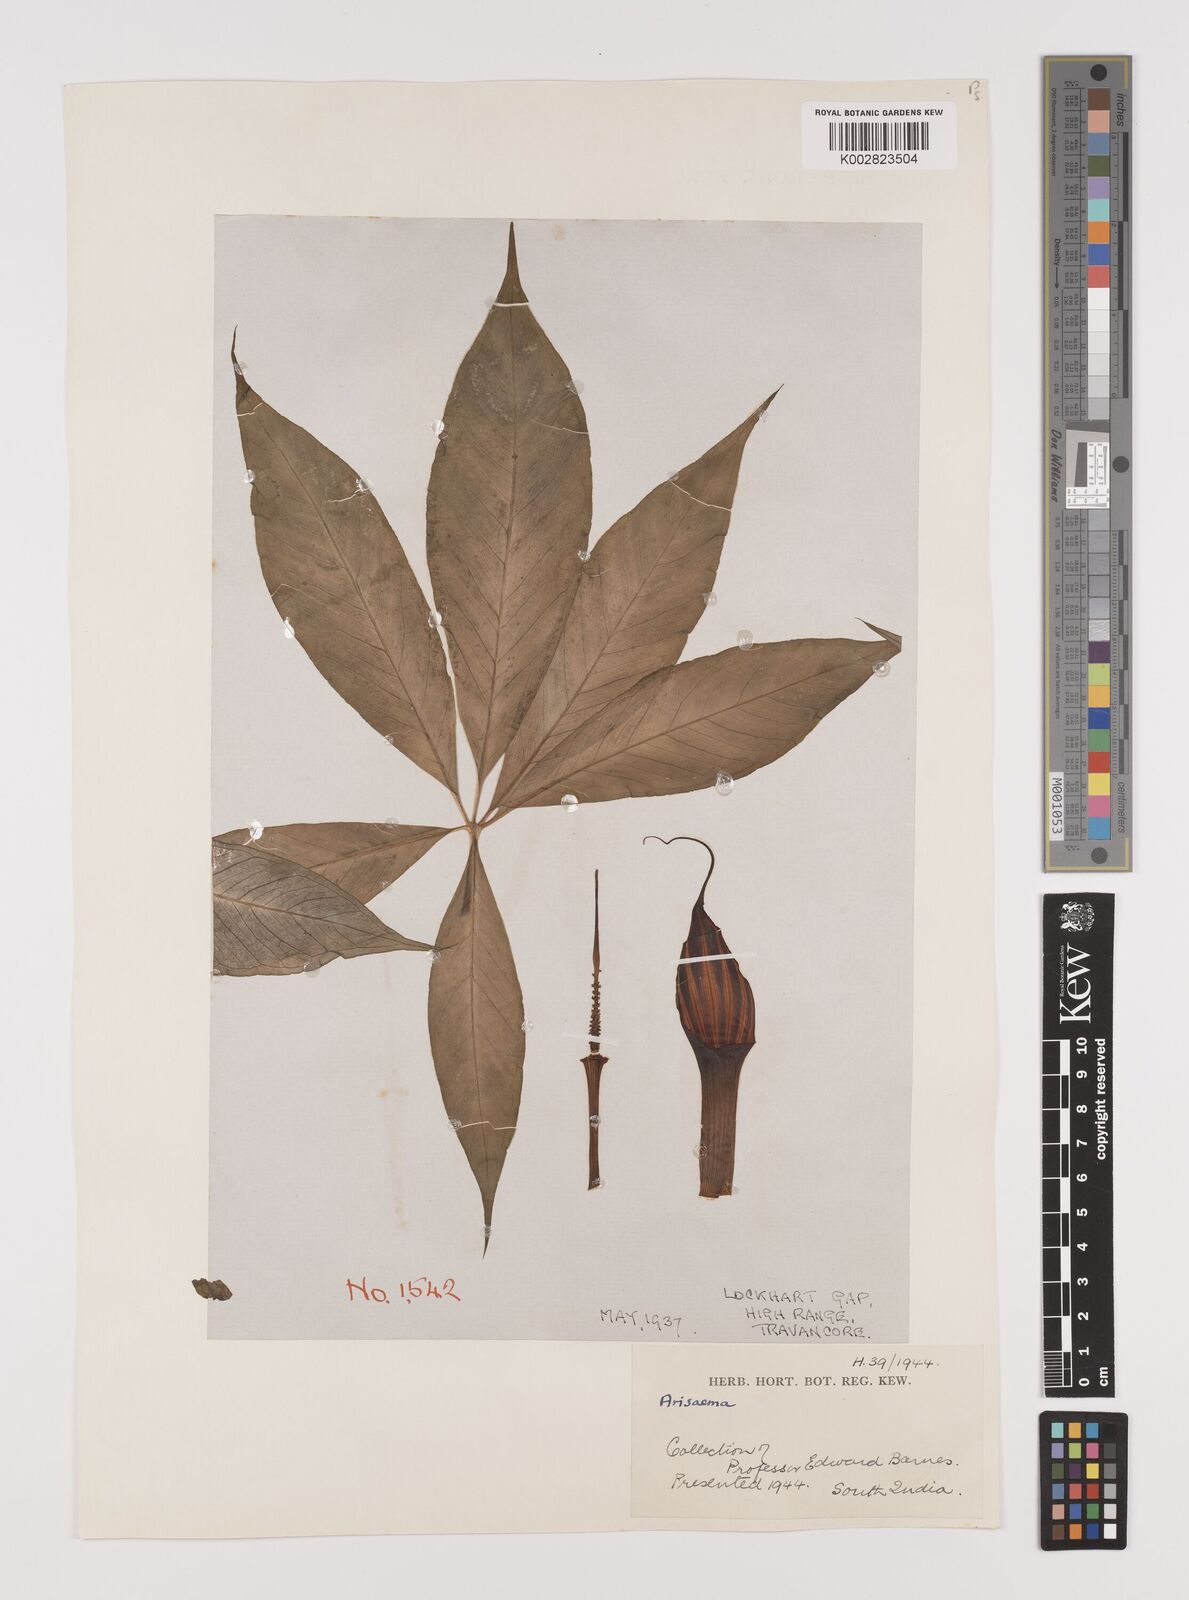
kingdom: Plantae
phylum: Tracheophyta
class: Liliopsida
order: Alismatales
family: Araceae
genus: Arisaema
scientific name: Arisaema
